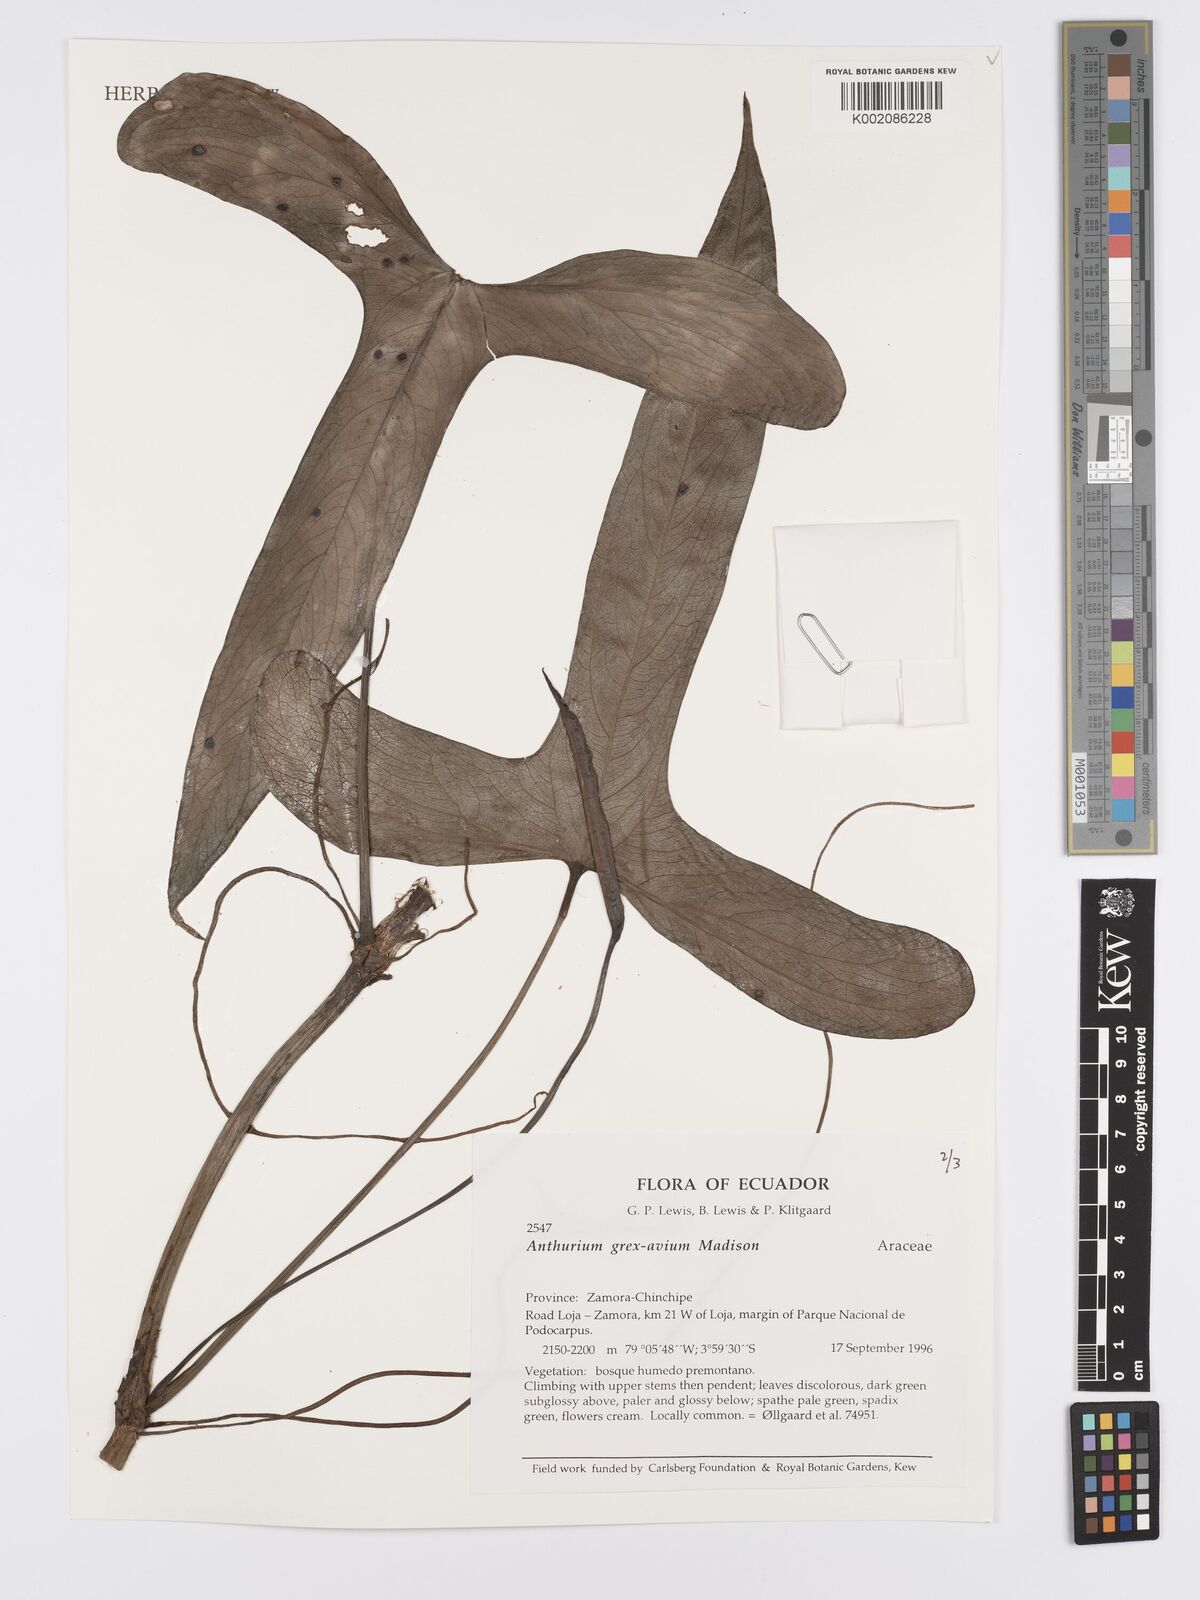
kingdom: Plantae
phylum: Tracheophyta
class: Liliopsida
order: Alismatales
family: Araceae
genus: Anthurium
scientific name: Anthurium grex-avium
